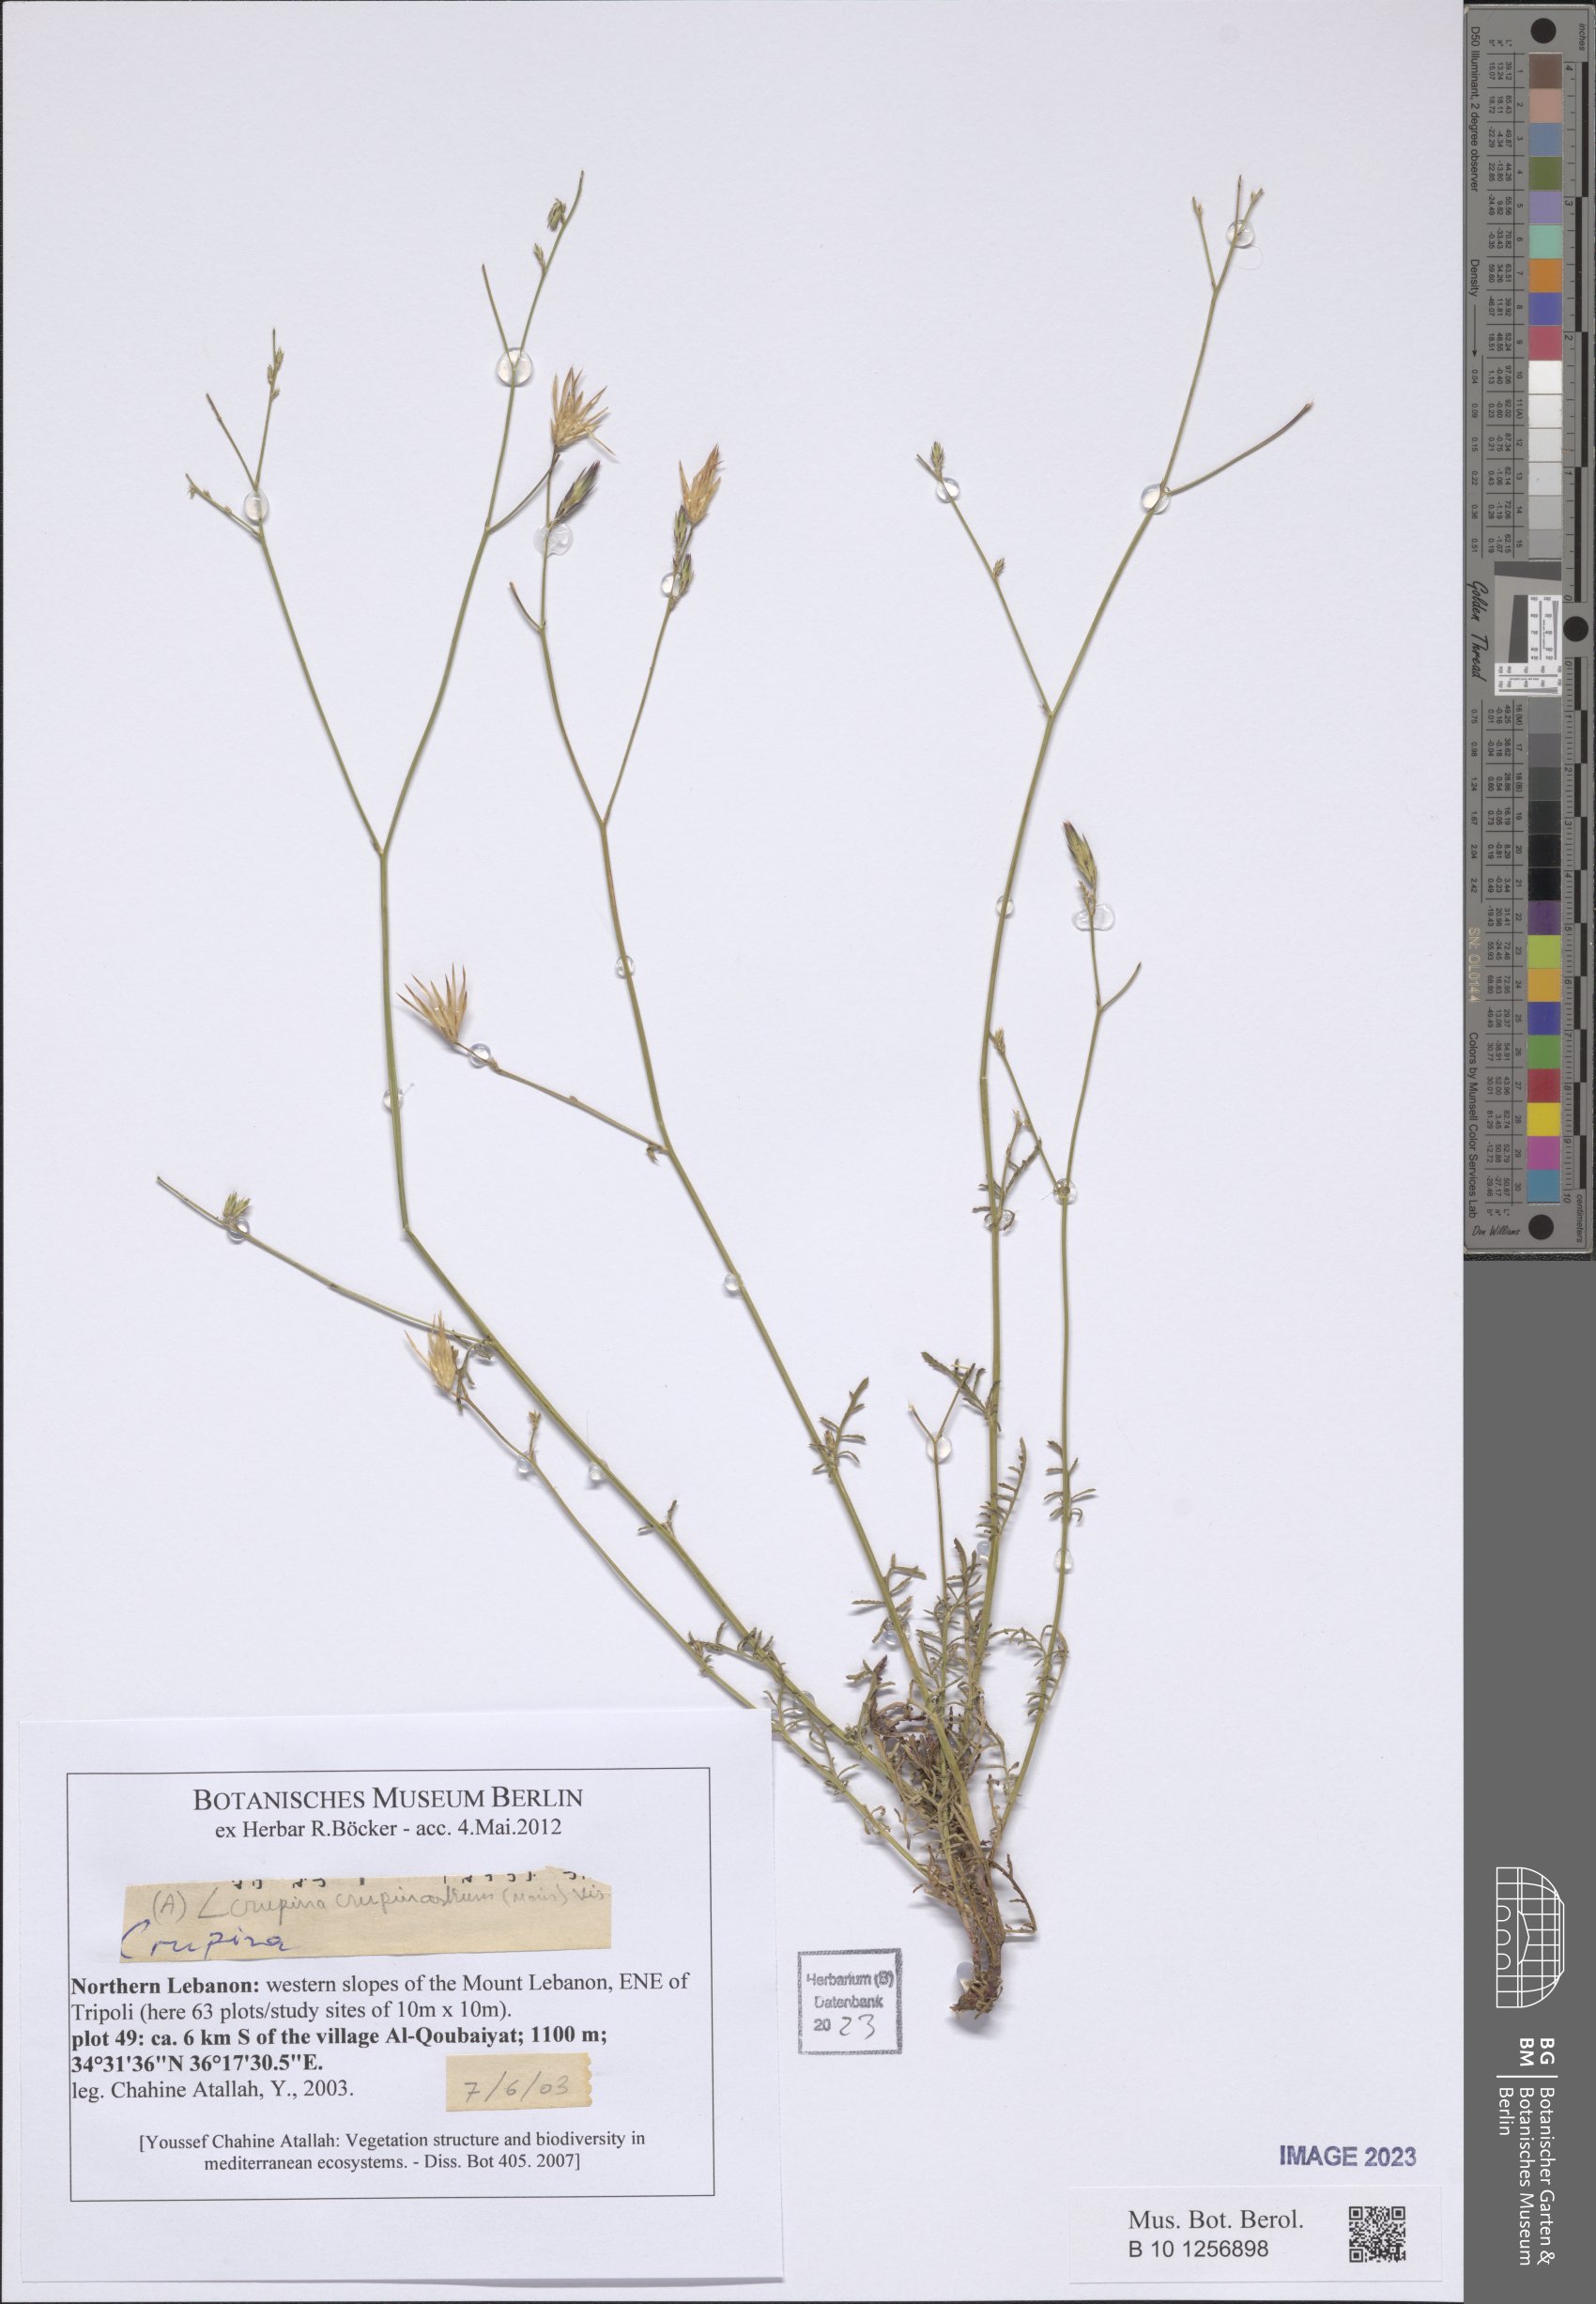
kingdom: Plantae
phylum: Tracheophyta
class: Magnoliopsida
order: Asterales
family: Asteraceae
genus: Crupina
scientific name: Crupina crupinastrum
